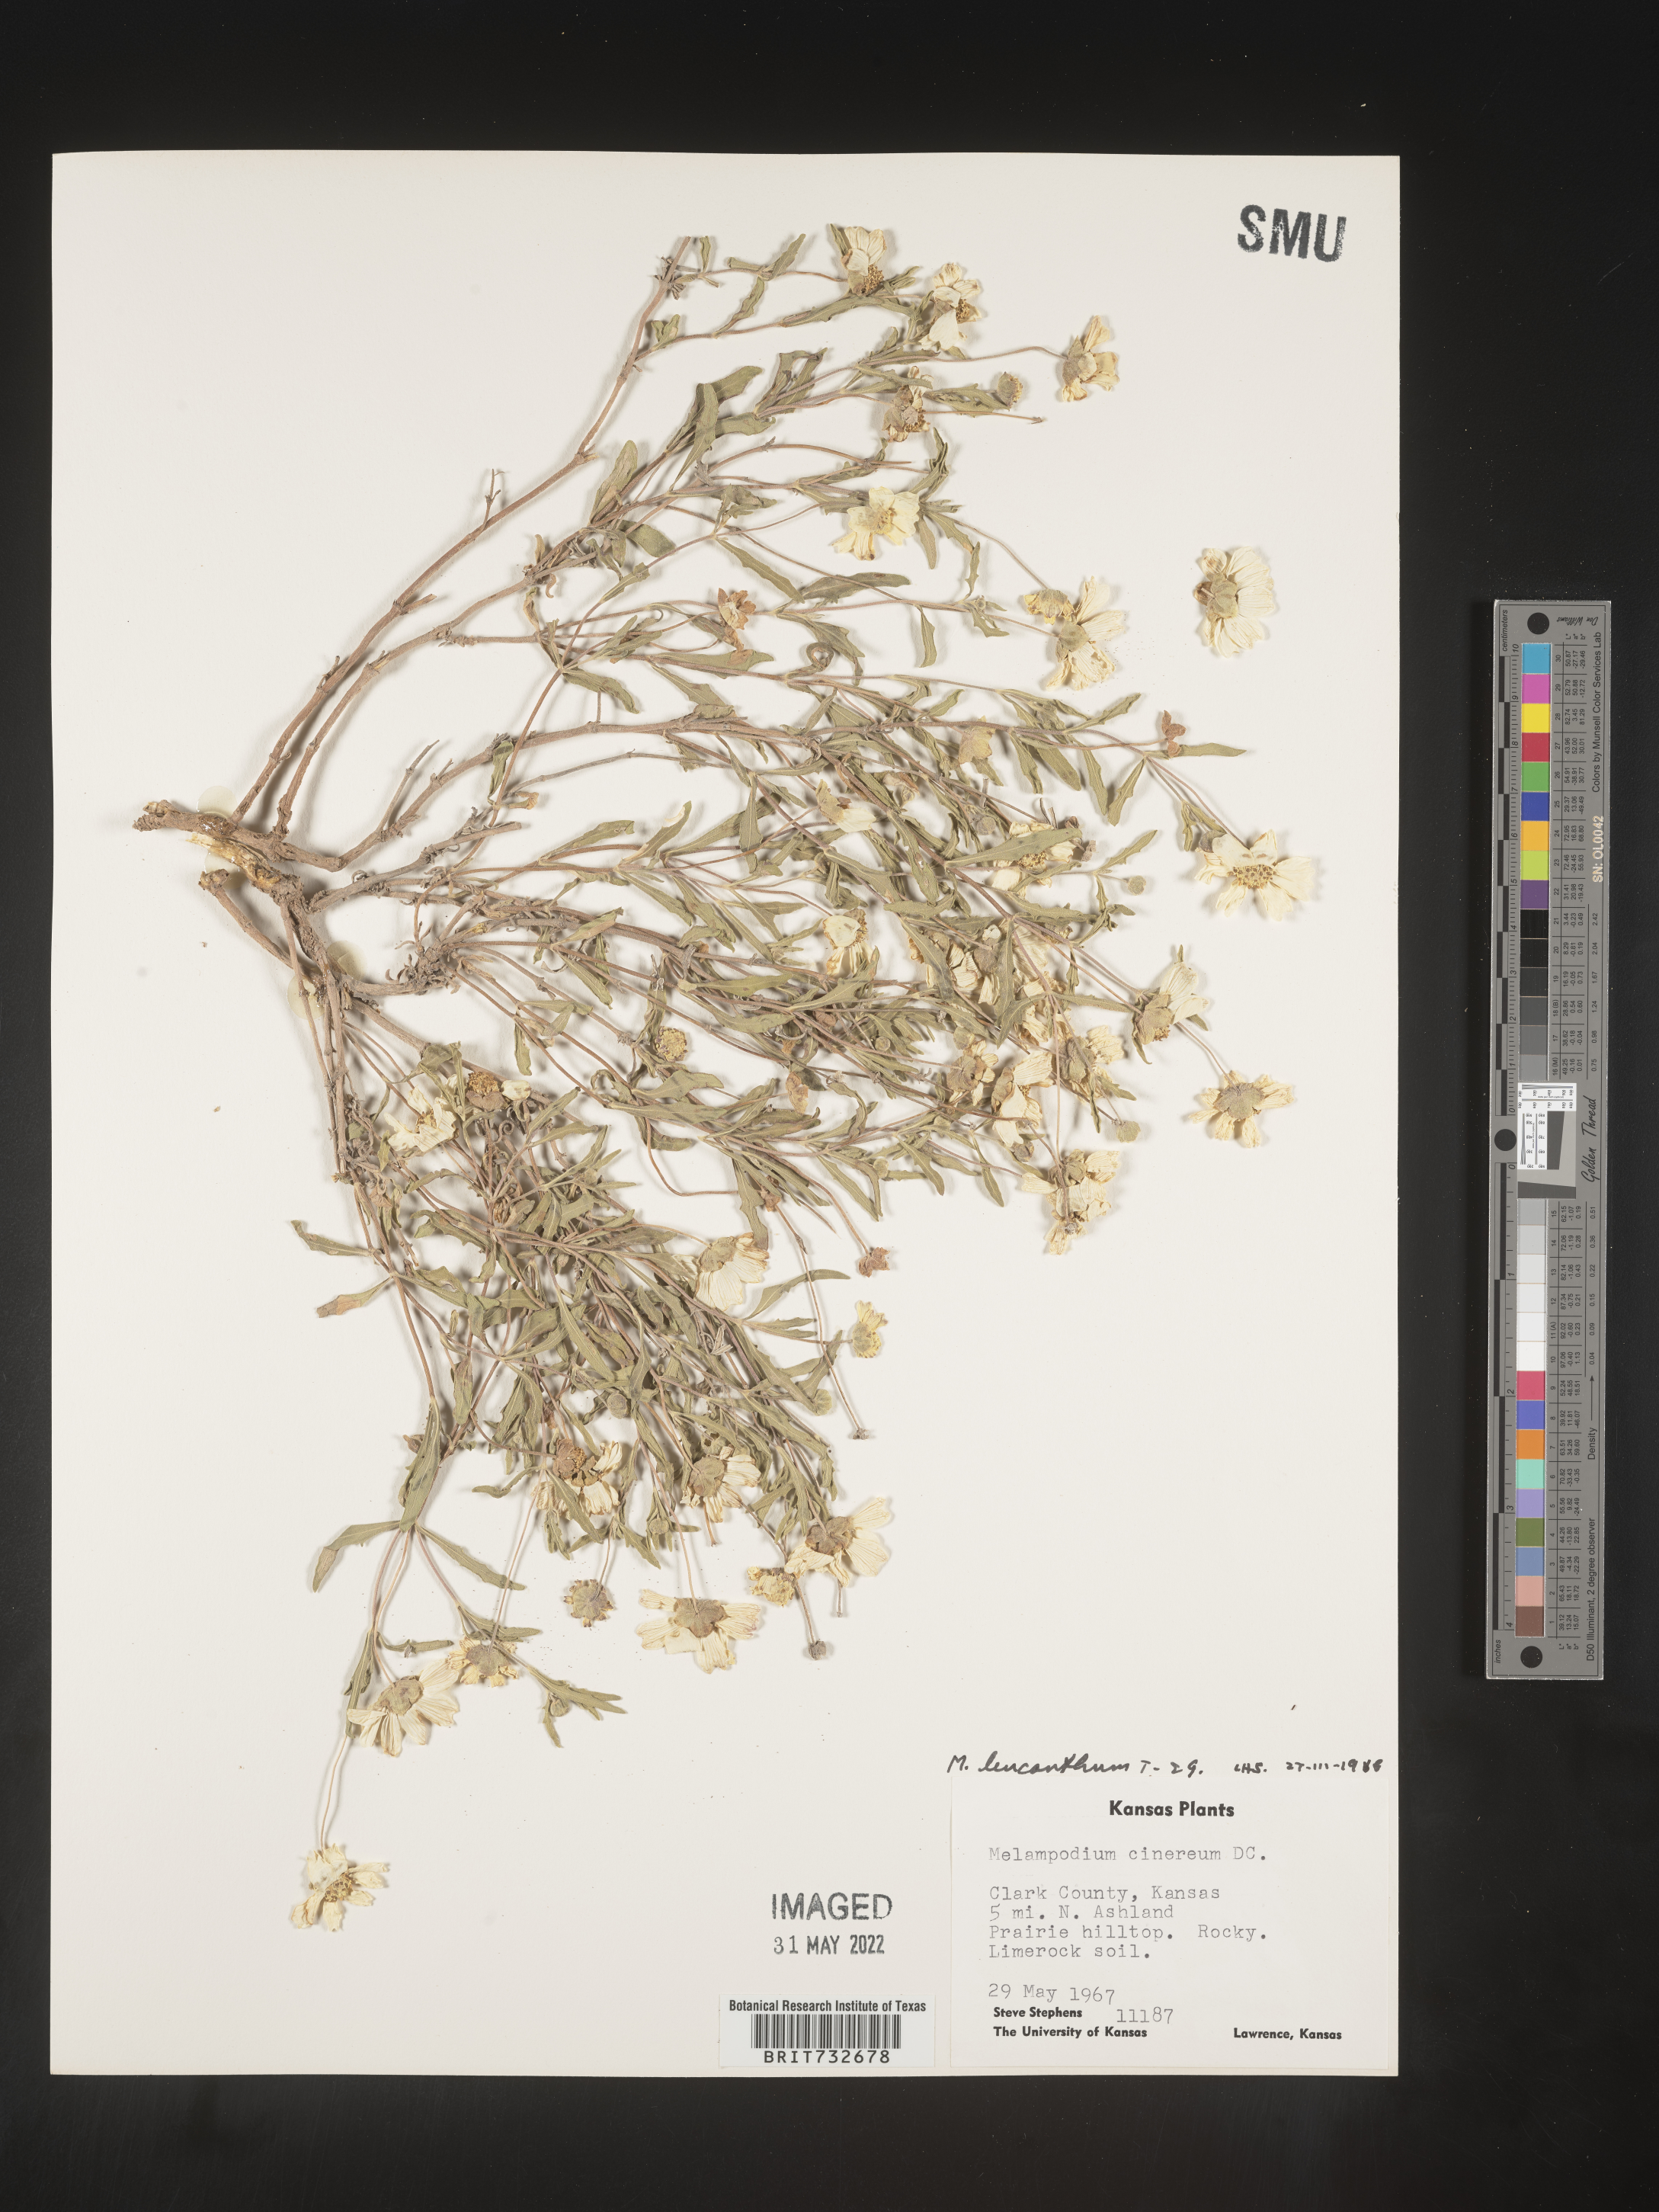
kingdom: Plantae
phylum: Tracheophyta
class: Magnoliopsida
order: Asterales
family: Asteraceae
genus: Melampodium
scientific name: Melampodium leucanthum
